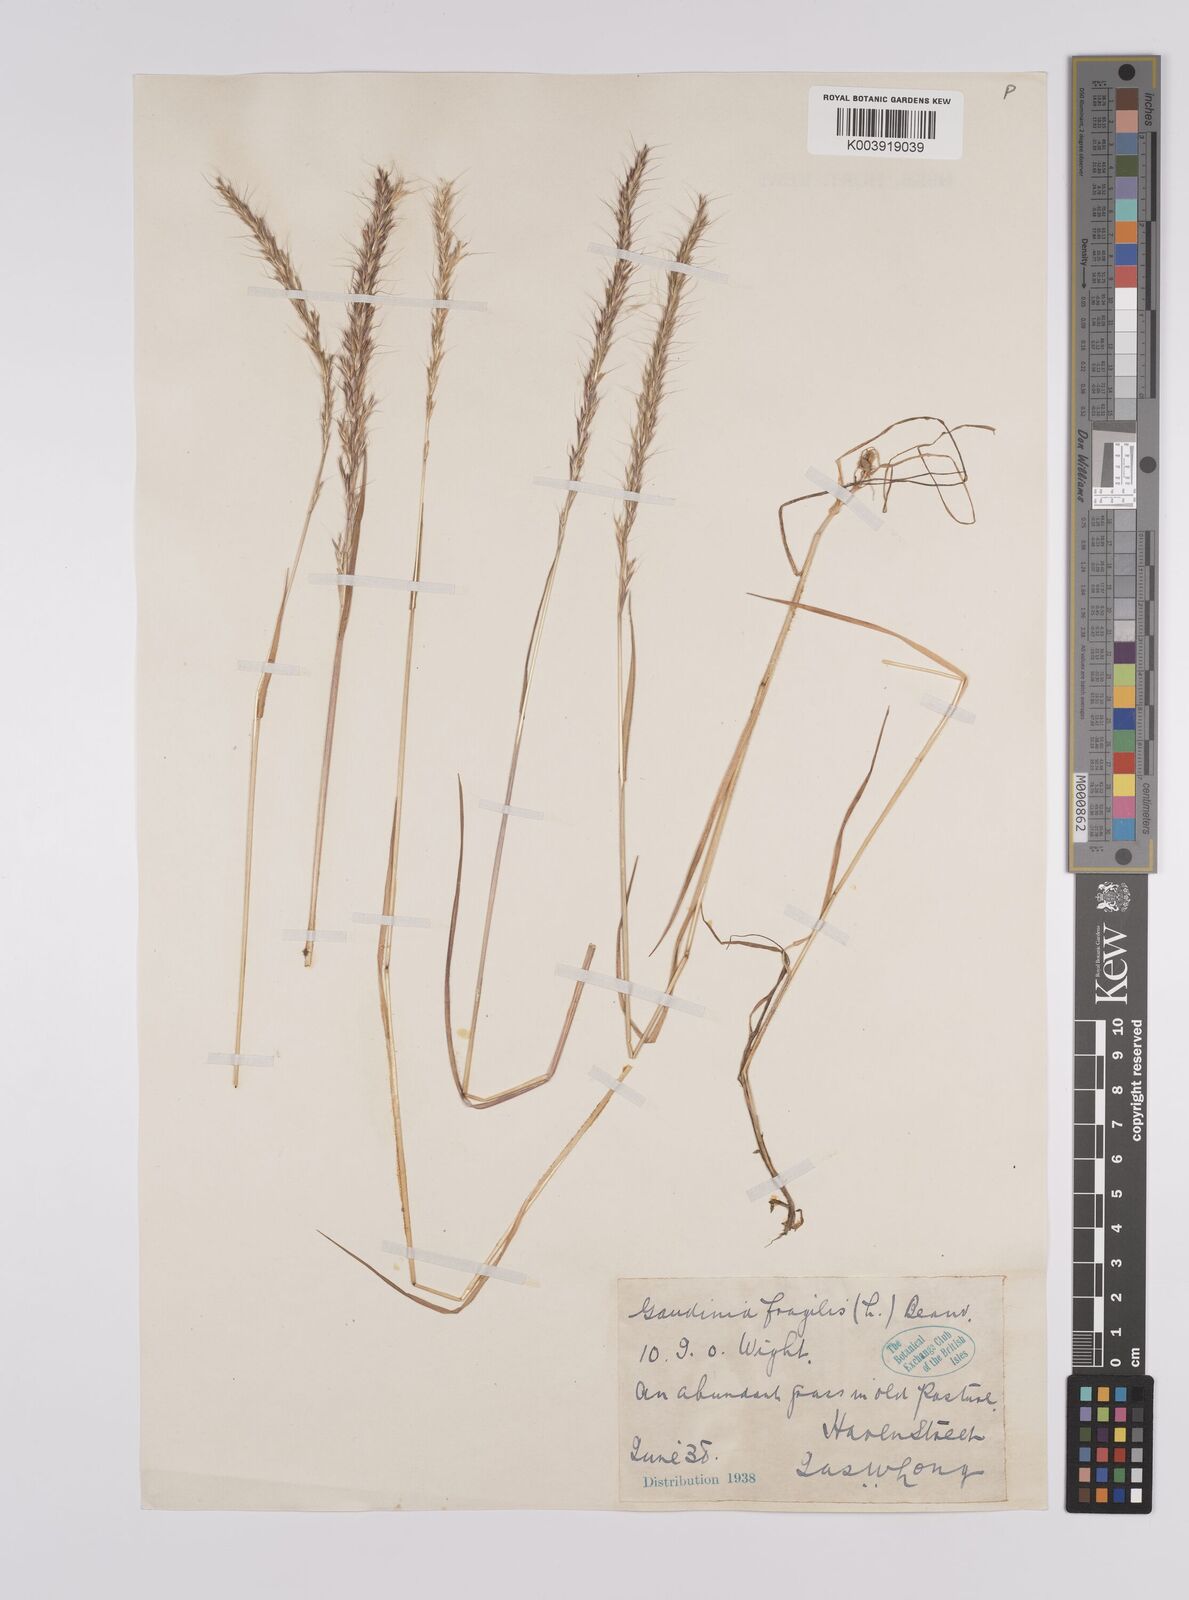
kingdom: Plantae
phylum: Tracheophyta
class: Liliopsida
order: Poales
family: Poaceae
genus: Gaudinia
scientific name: Gaudinia fragilis
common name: French oat-grass
